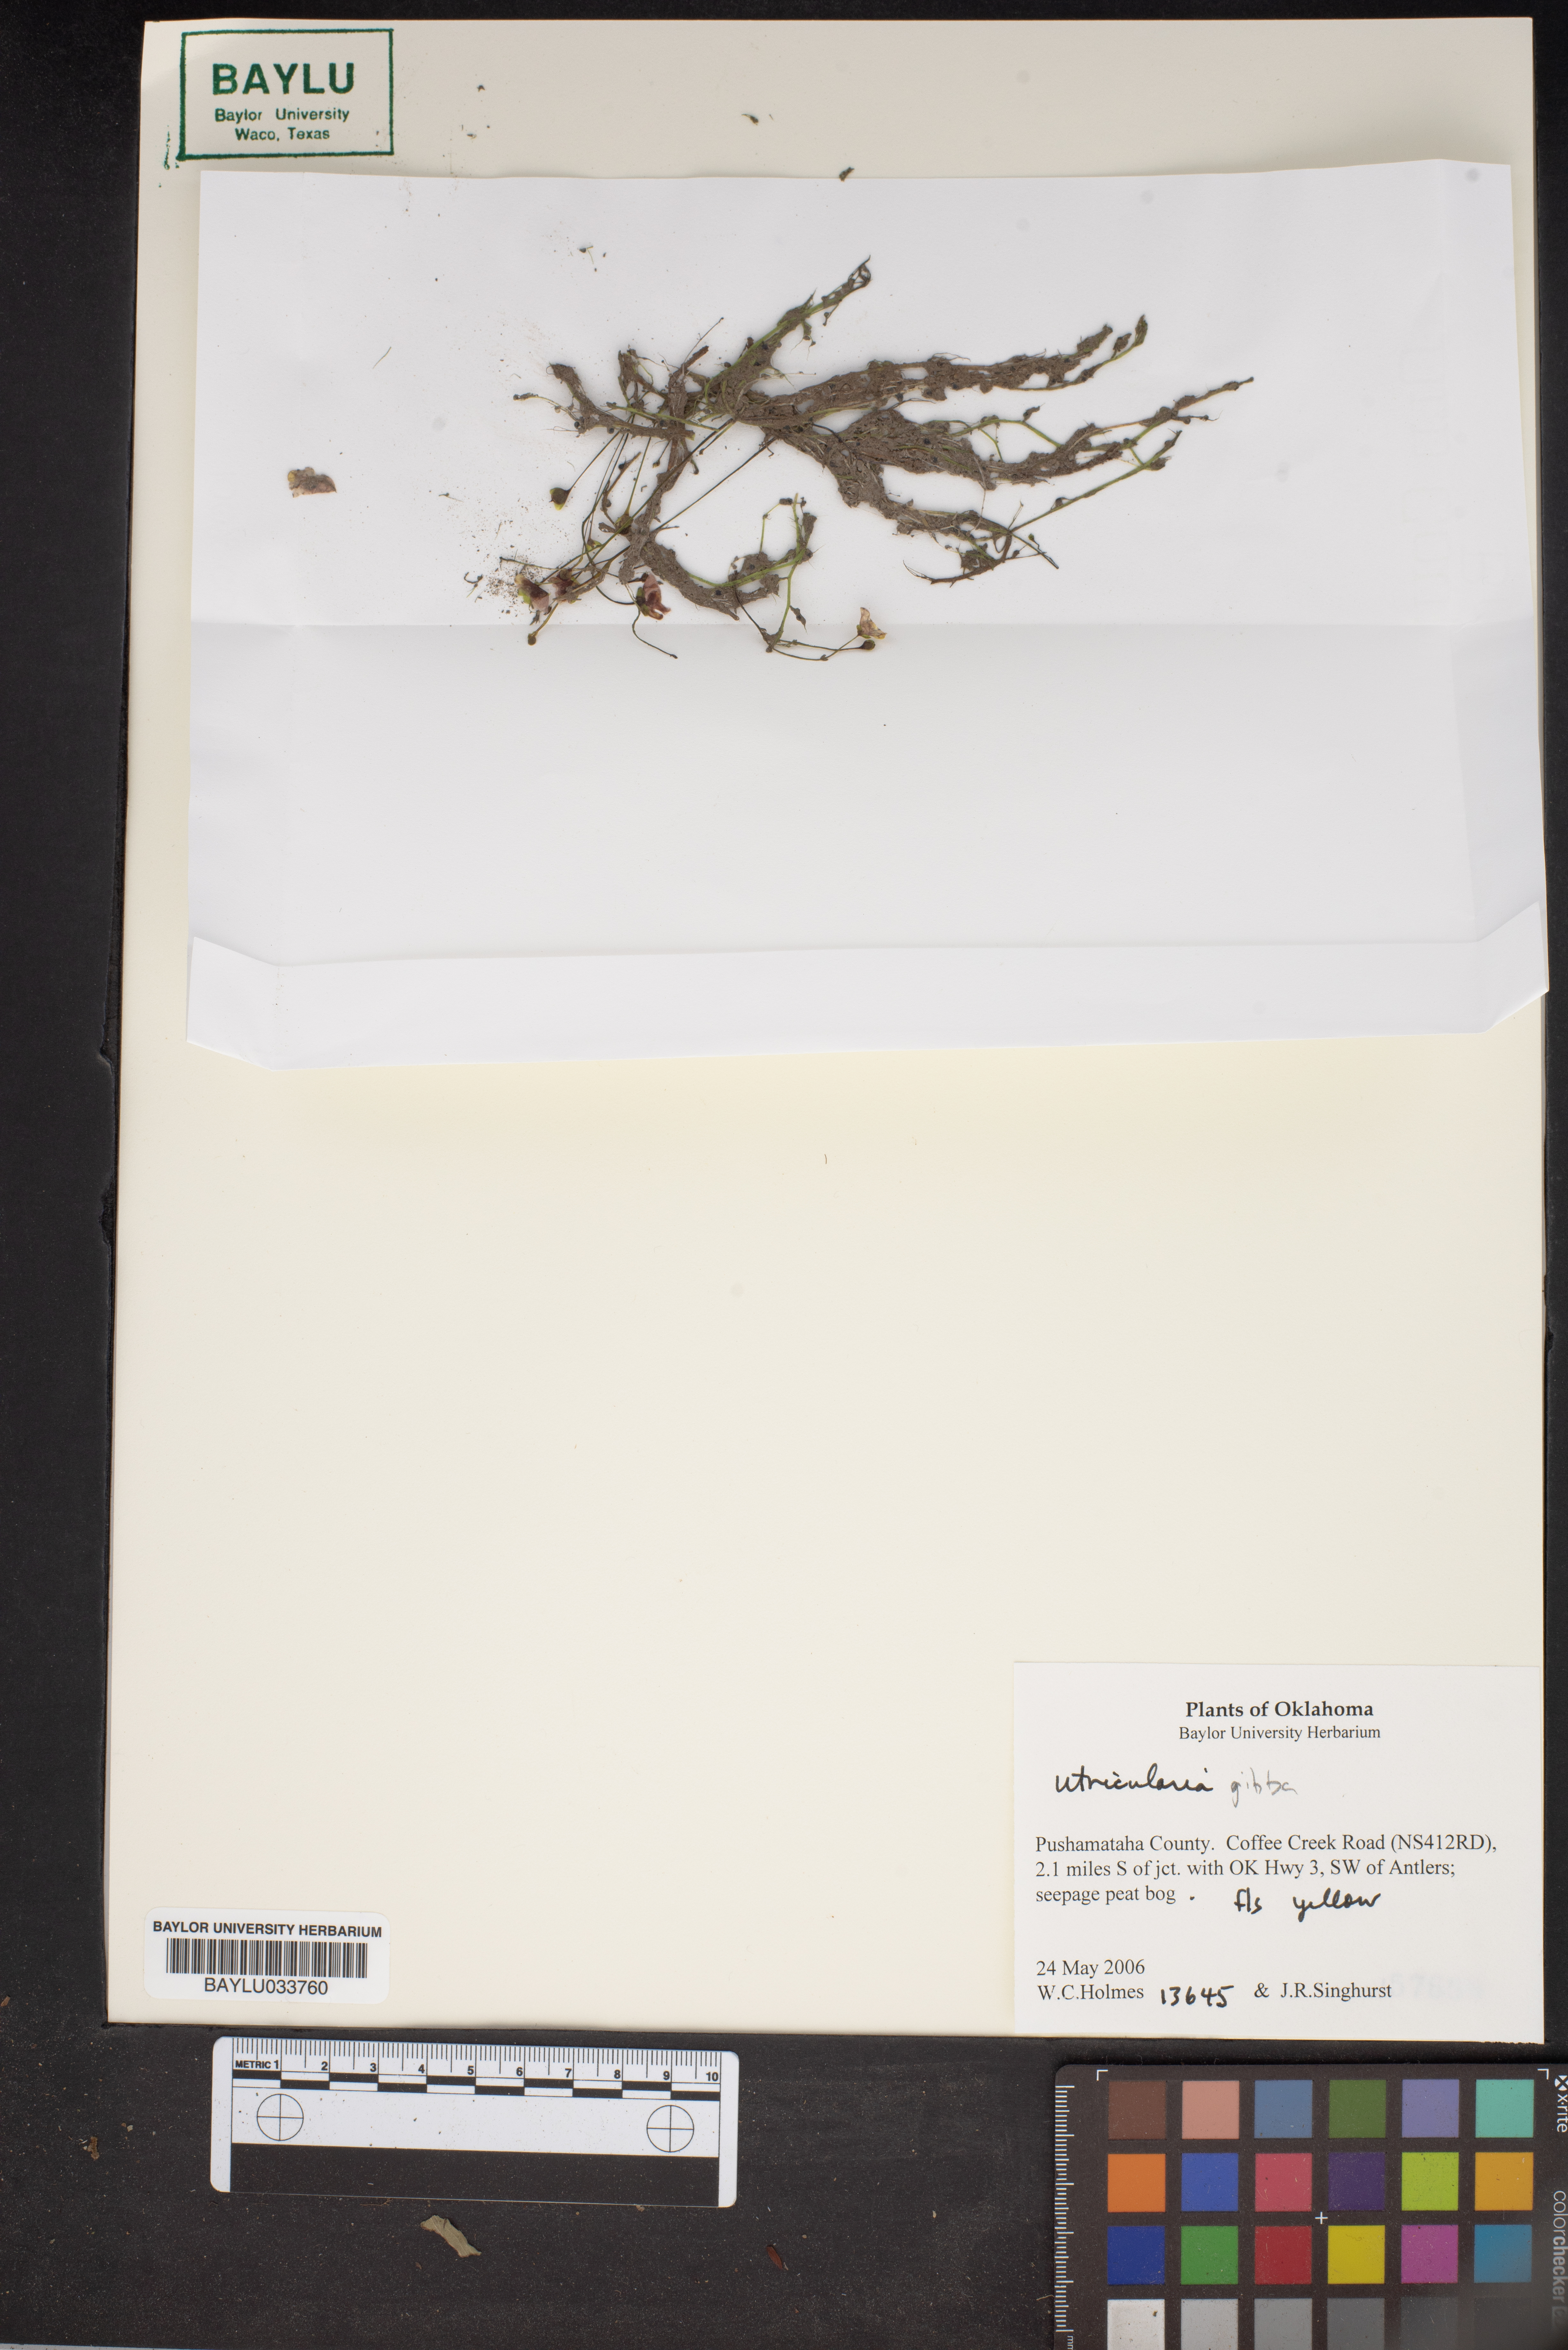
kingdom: Plantae
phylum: Tracheophyta
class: Magnoliopsida
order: Lamiales
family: Lentibulariaceae
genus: Utricularia
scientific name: Utricularia gibba
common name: Humped bladderwort
